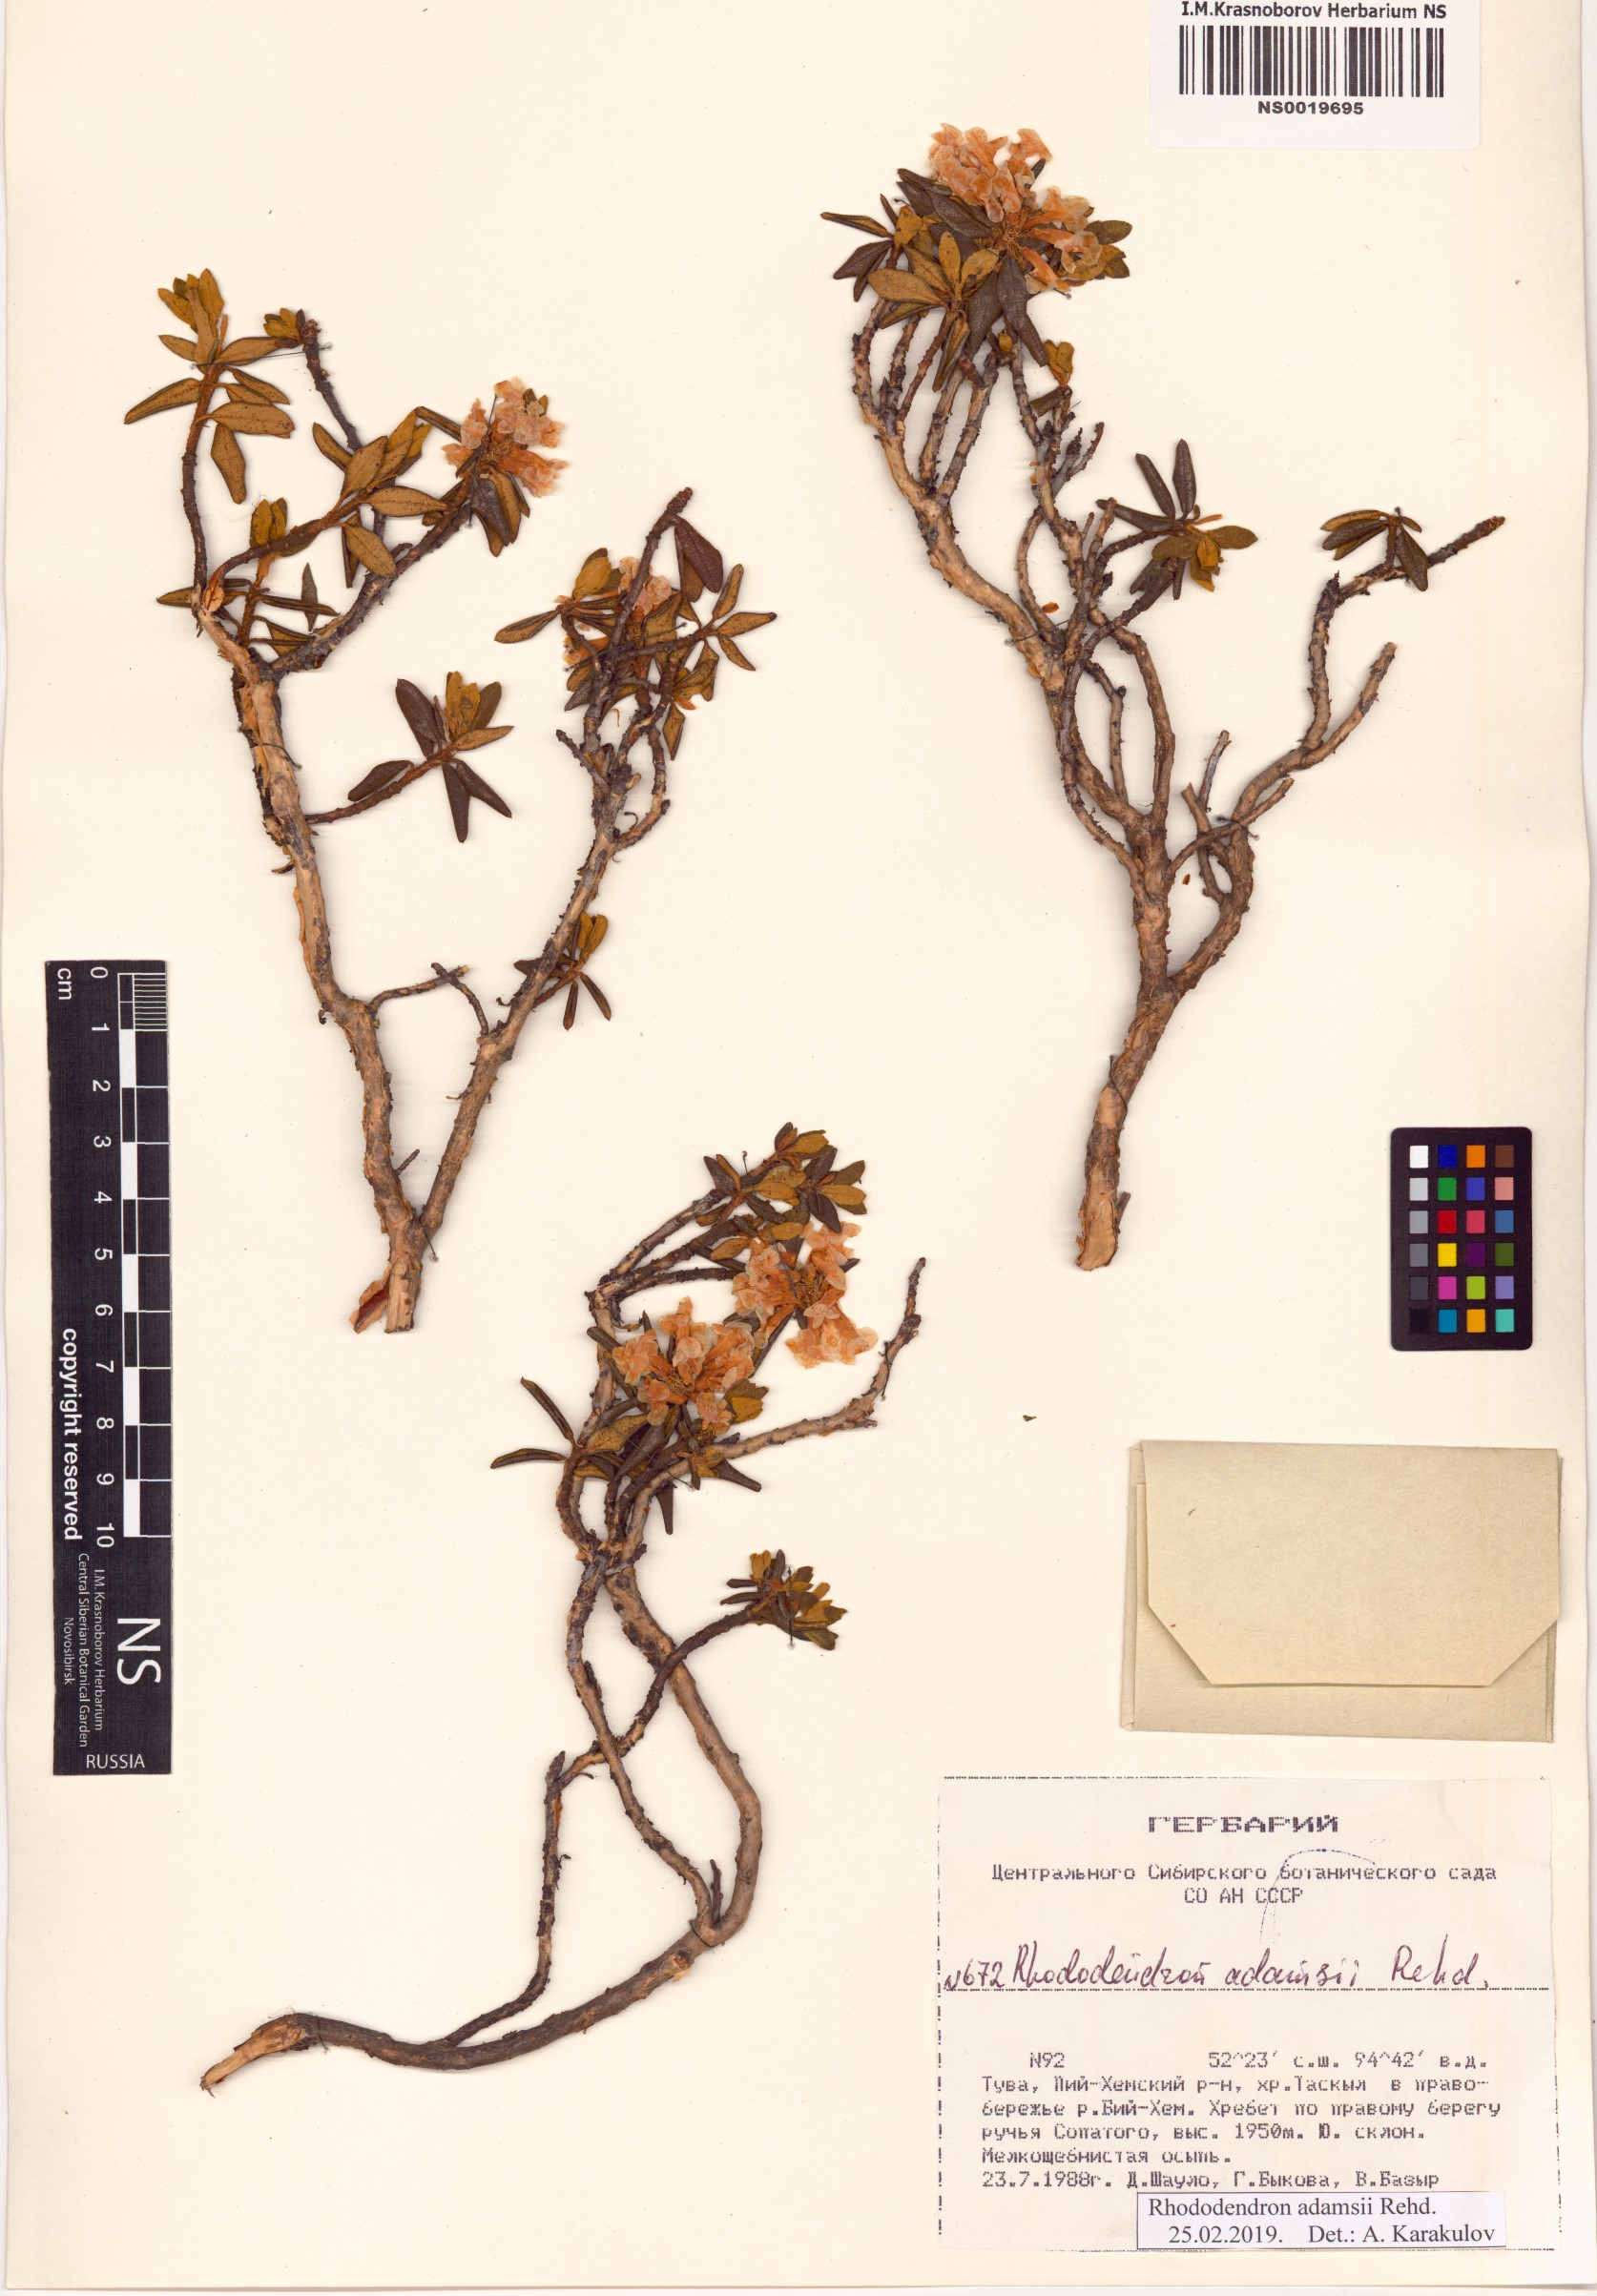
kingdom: Plantae
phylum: Tracheophyta
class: Magnoliopsida
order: Ericales
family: Ericaceae
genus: Rhododendron
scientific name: Rhododendron adamsii
